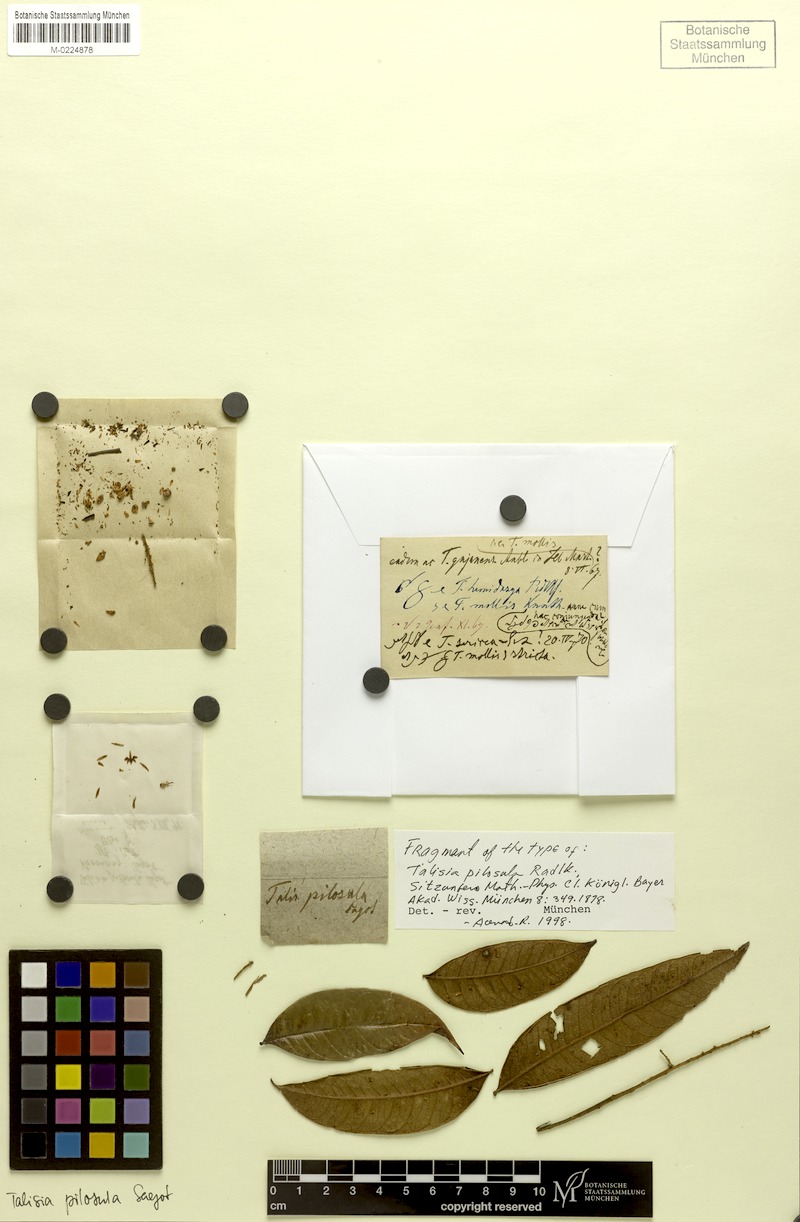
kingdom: Plantae
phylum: Tracheophyta
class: Magnoliopsida
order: Sapindales
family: Sapindaceae
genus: Talisia
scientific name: Talisia pilosula
